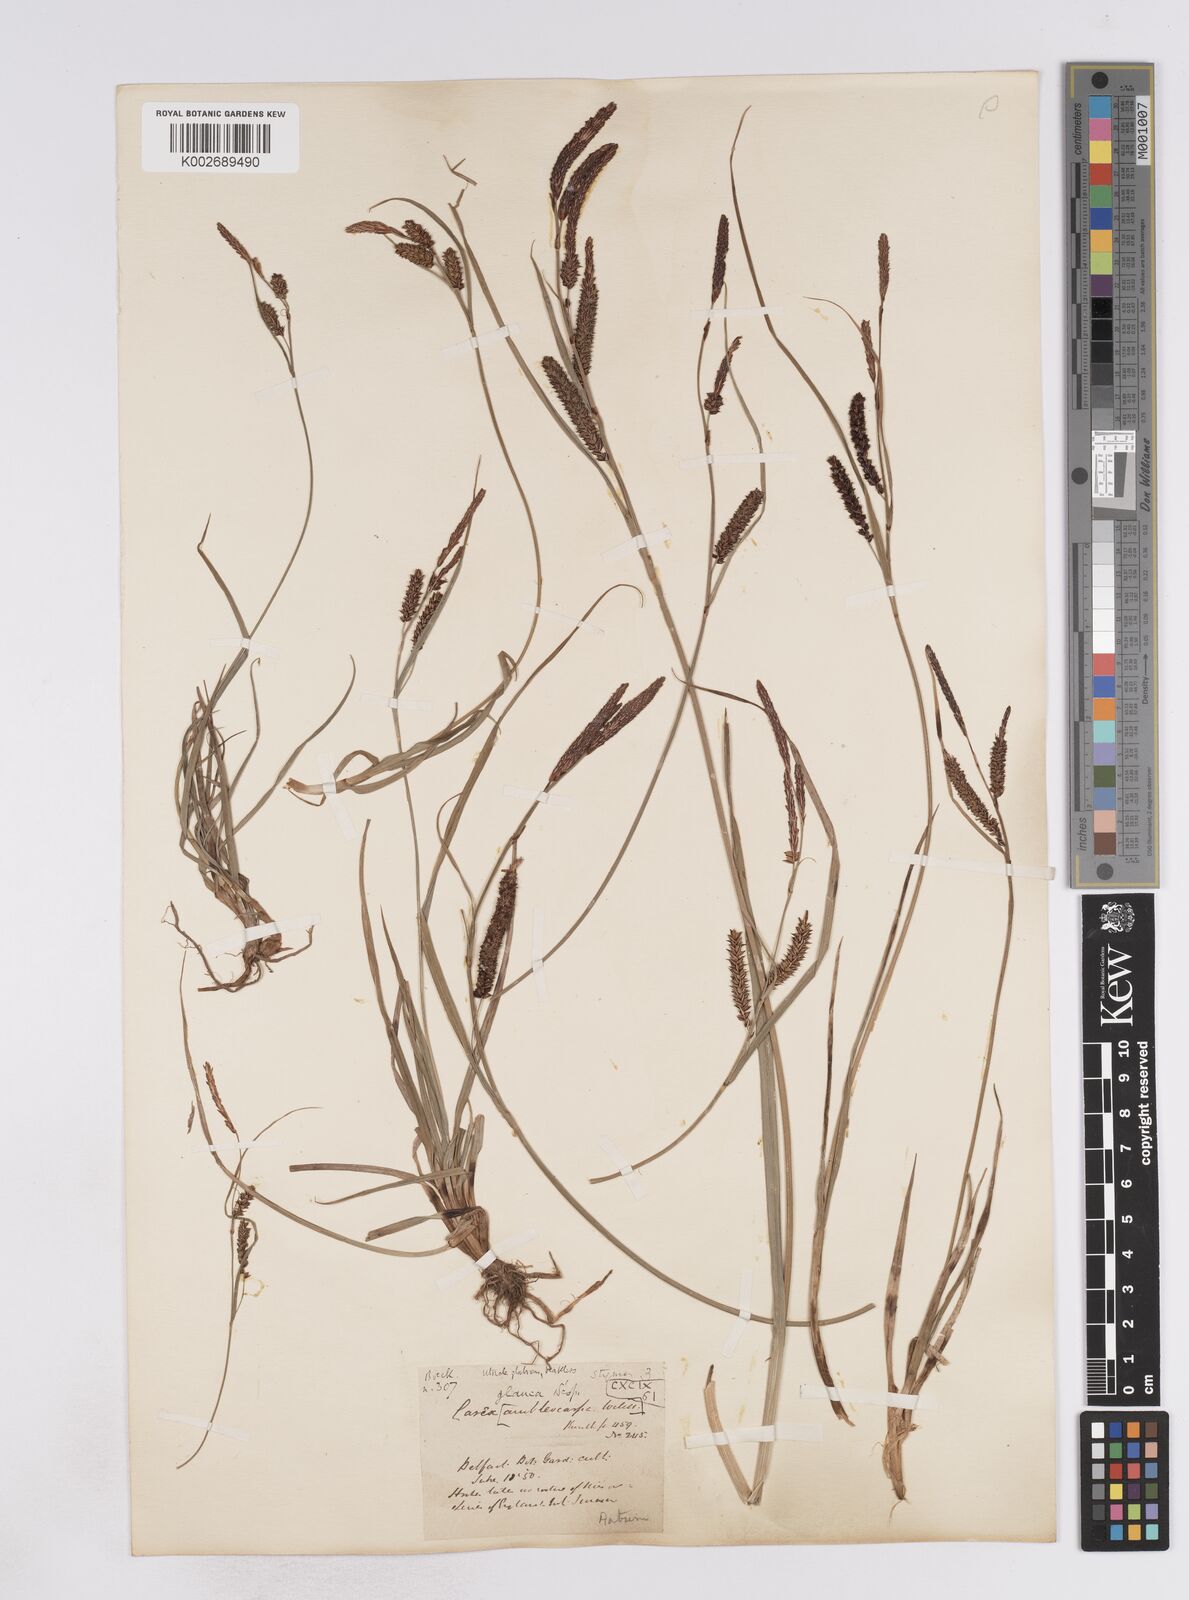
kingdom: Plantae
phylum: Tracheophyta
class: Liliopsida
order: Poales
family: Cyperaceae
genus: Carex
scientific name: Carex flacca
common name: Glaucous sedge
